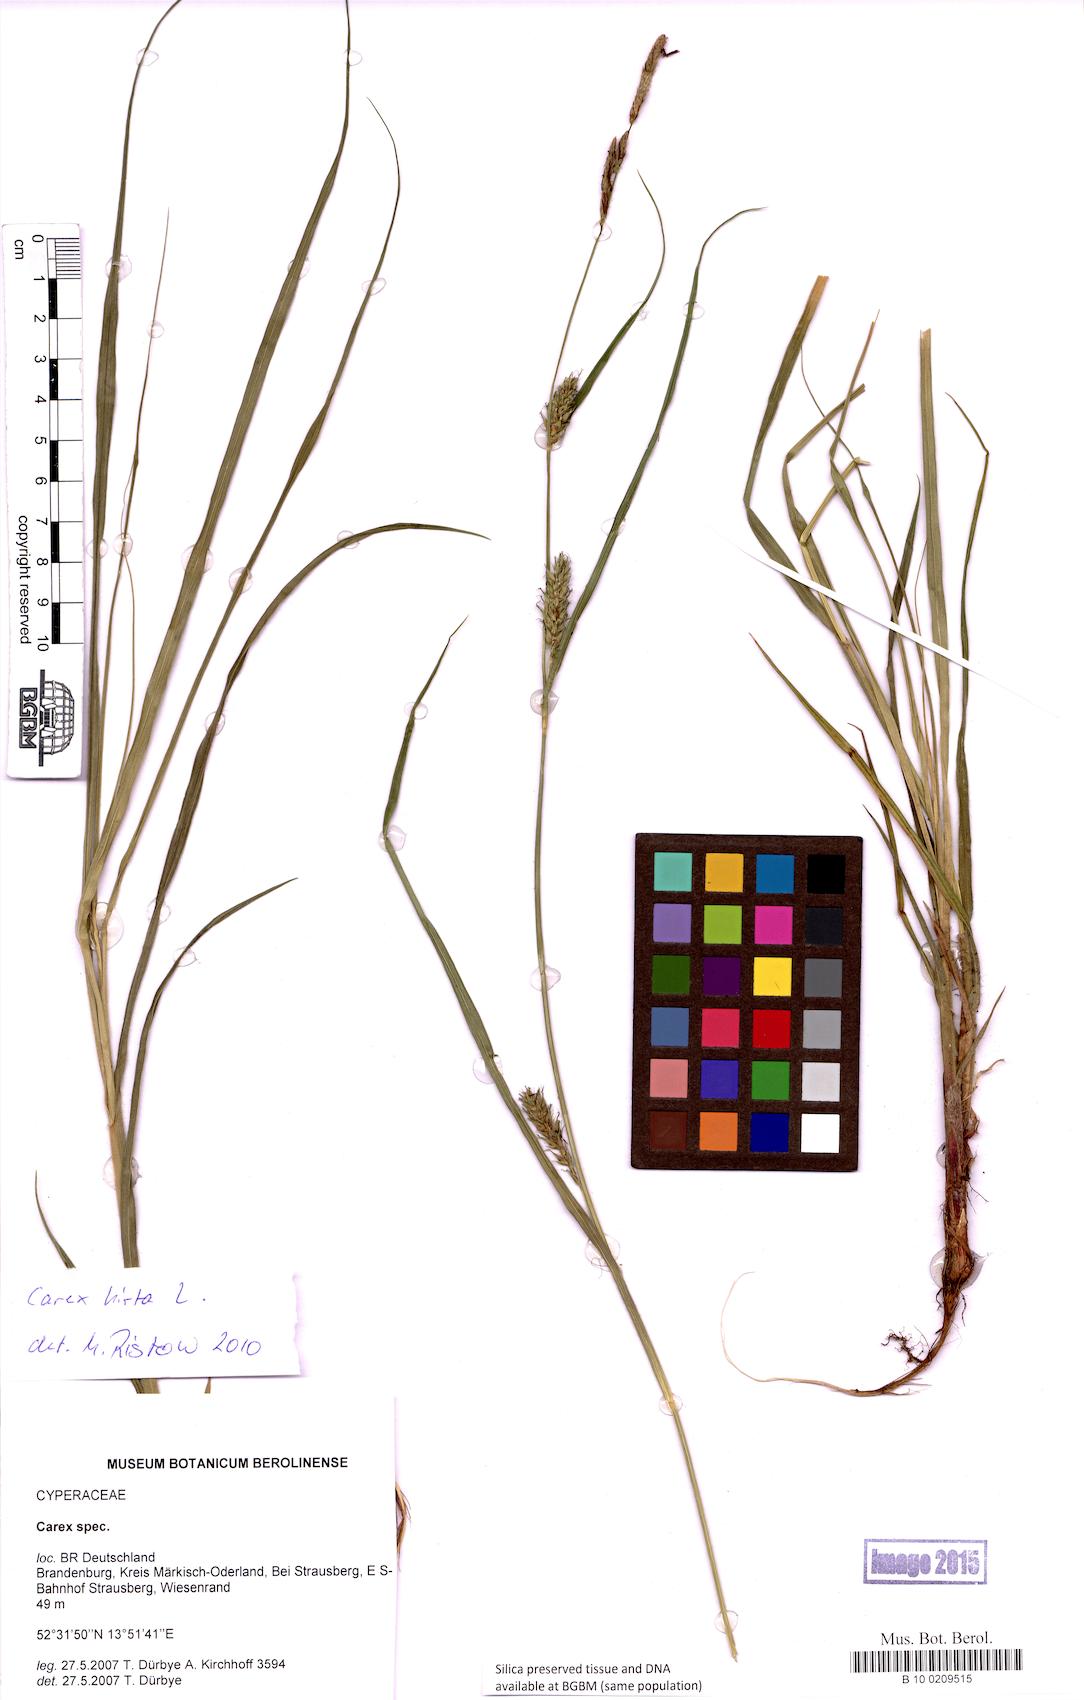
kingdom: Plantae
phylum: Tracheophyta
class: Liliopsida
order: Poales
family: Cyperaceae
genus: Carex
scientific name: Carex
